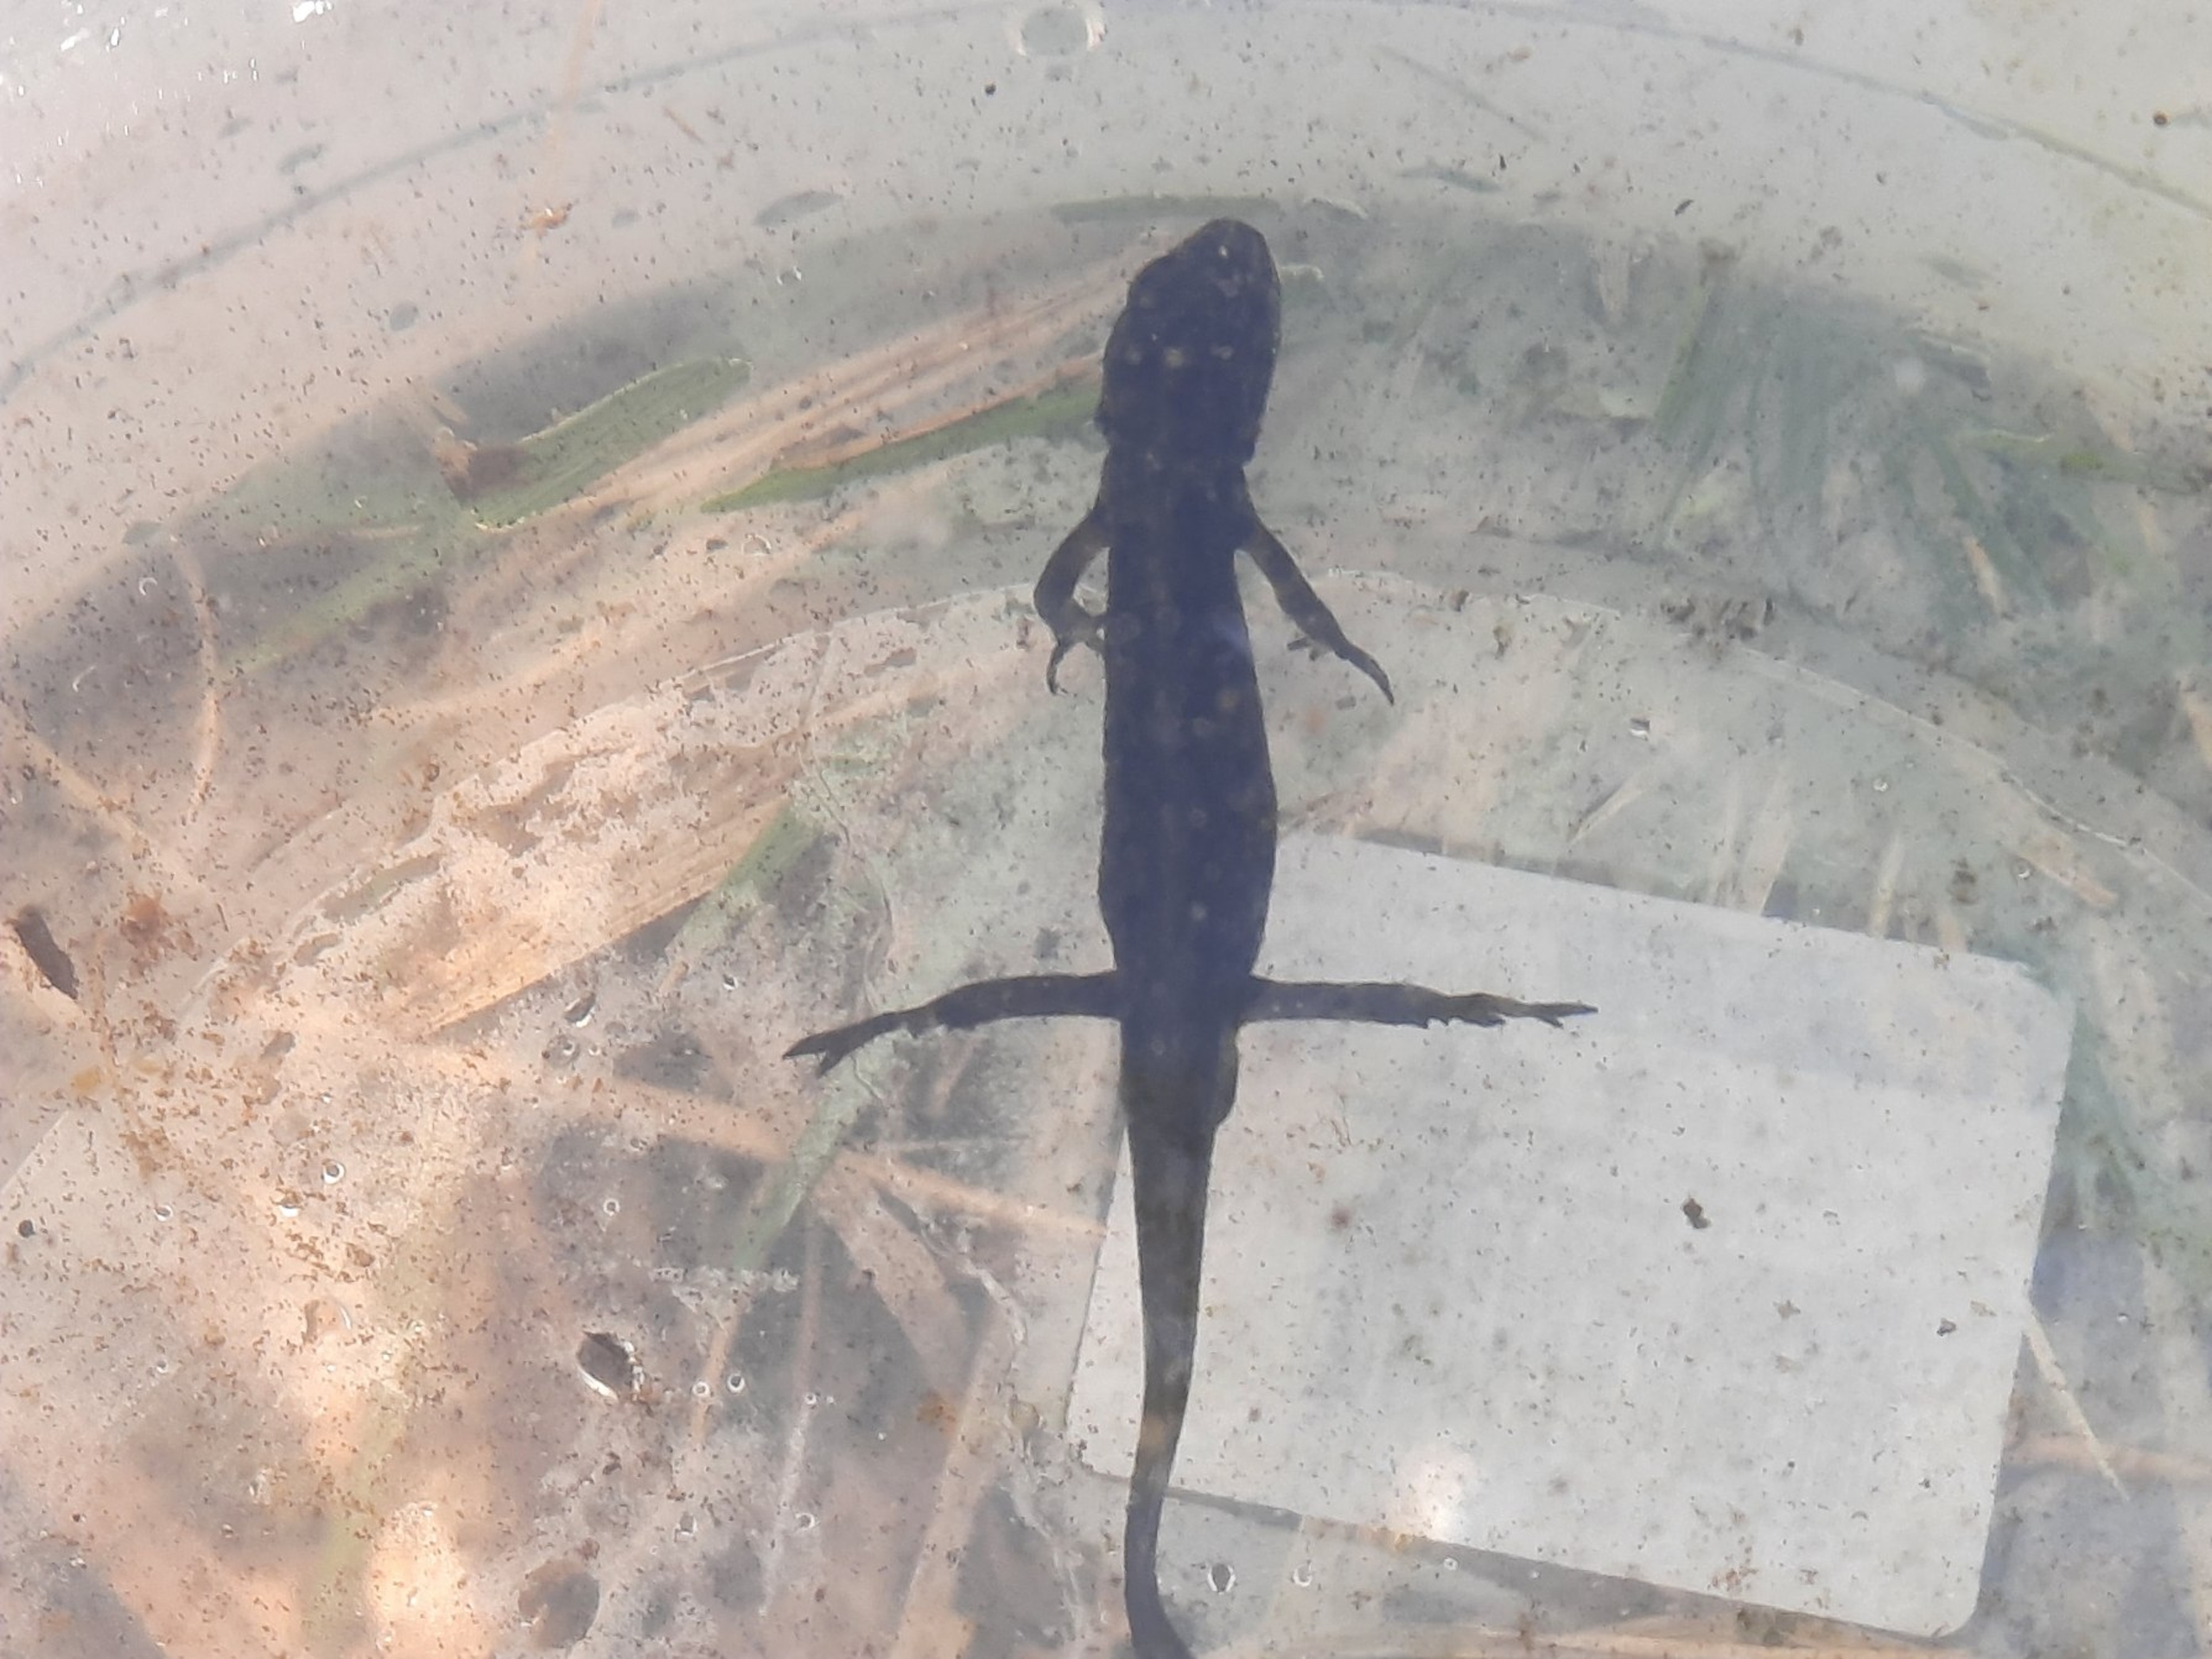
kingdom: Animalia
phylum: Chordata
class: Amphibia
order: Caudata
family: Salamandridae
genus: Lissotriton
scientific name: Lissotriton vulgaris
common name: Lille vandsalamander
